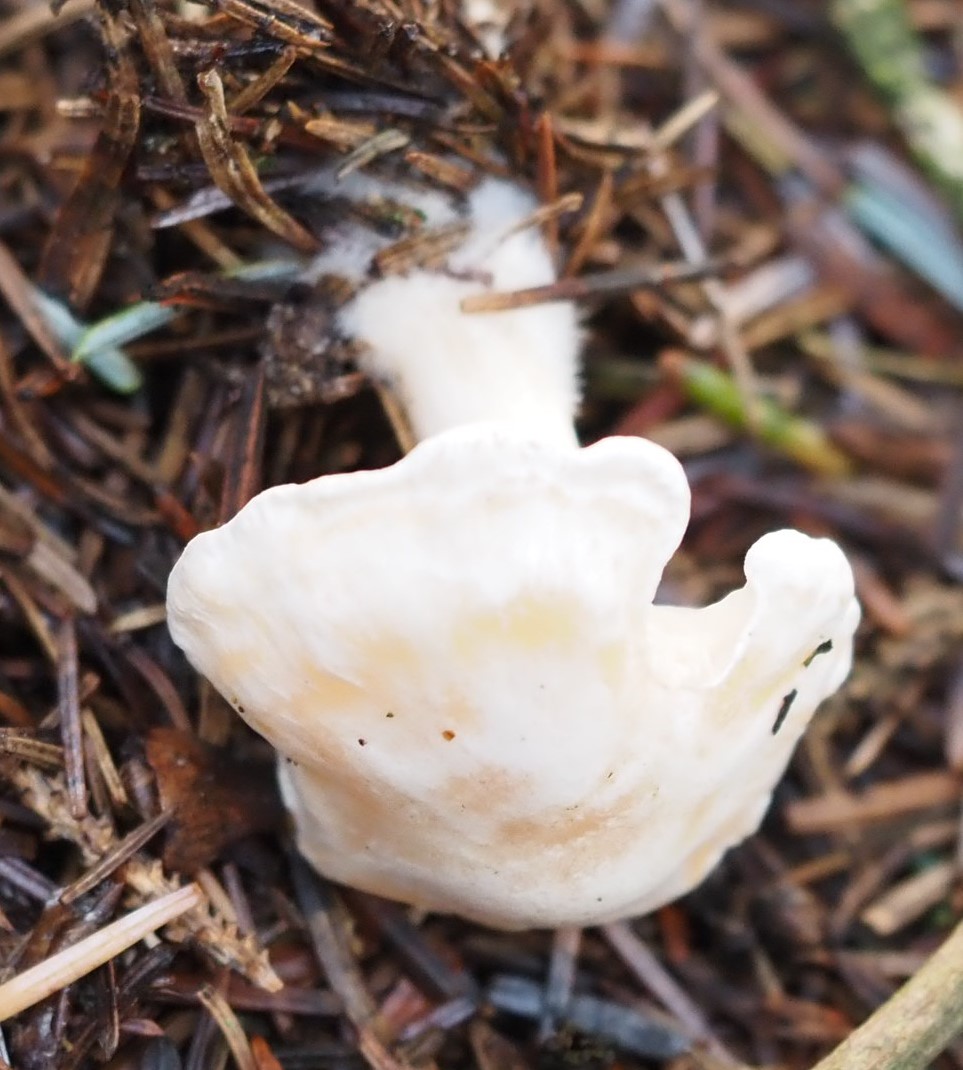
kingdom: Fungi
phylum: Basidiomycota
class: Agaricomycetes
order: Agaricales
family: Tricholomataceae
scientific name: Tricholomataceae
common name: ridderhatfamilien
